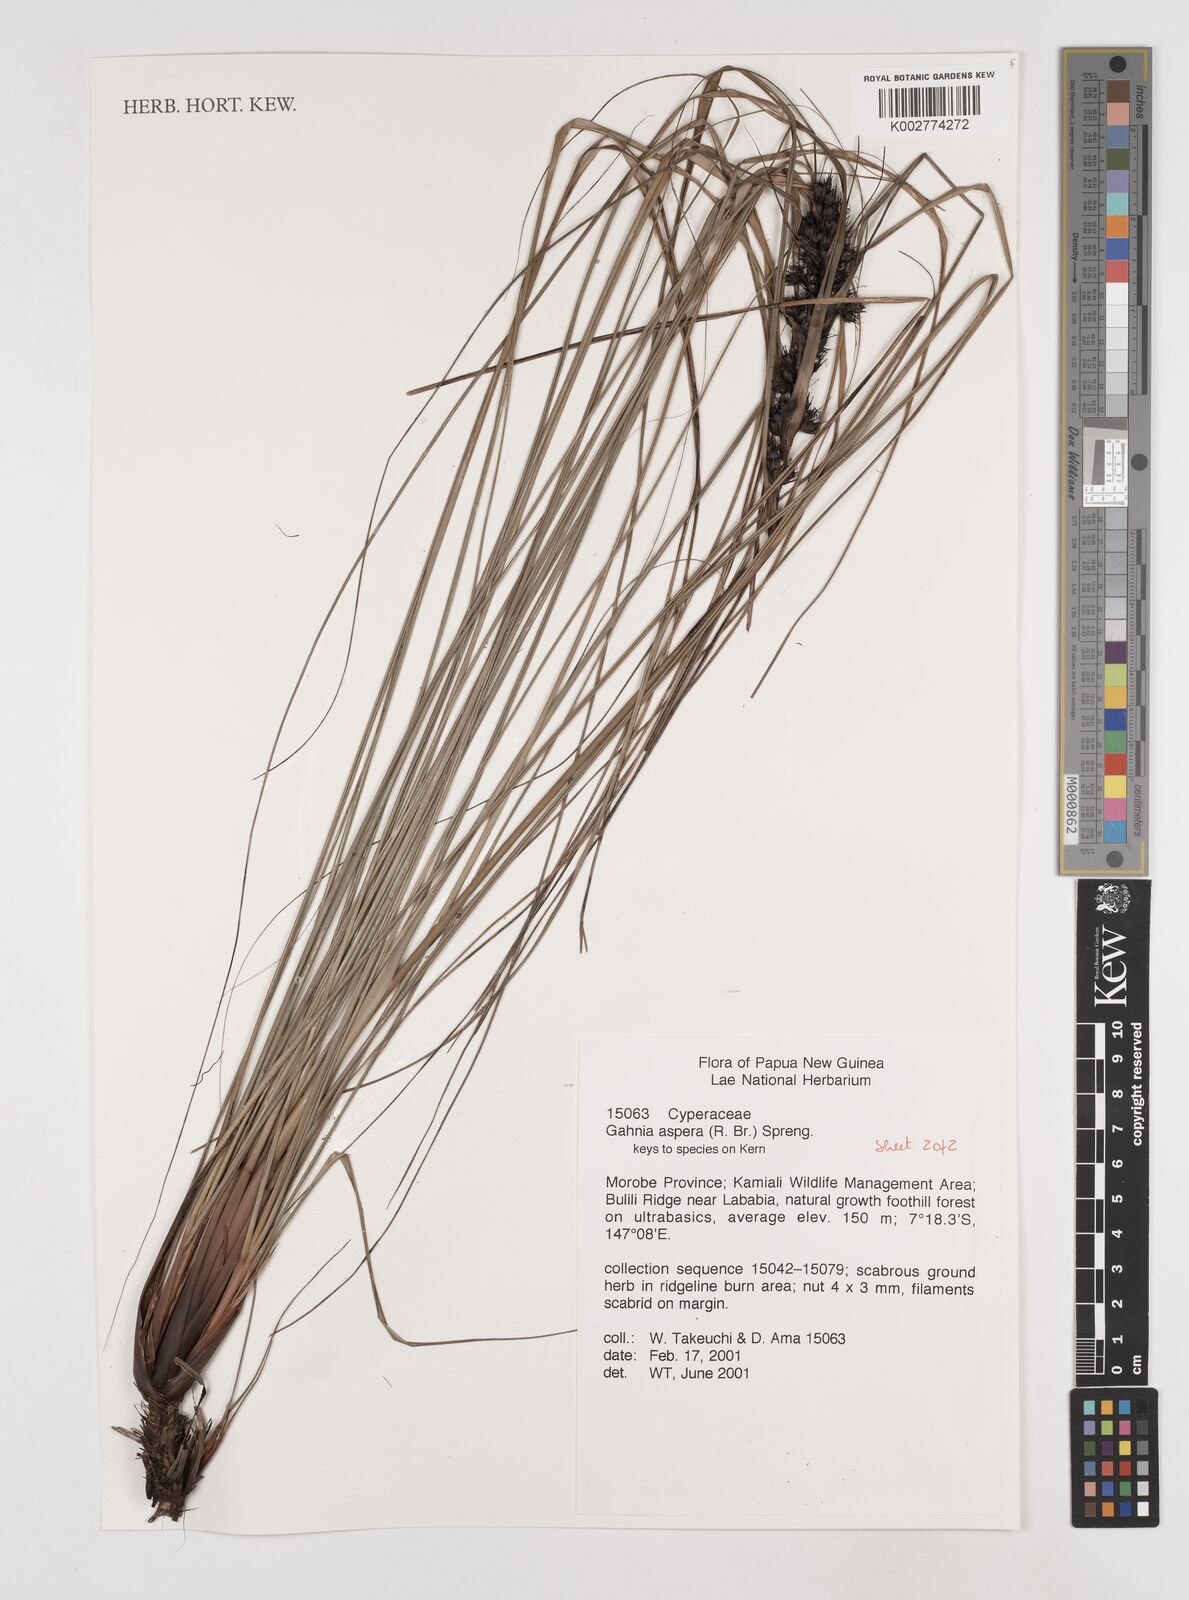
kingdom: Plantae
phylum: Tracheophyta
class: Liliopsida
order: Poales
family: Cyperaceae
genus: Gahnia
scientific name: Gahnia aspera
